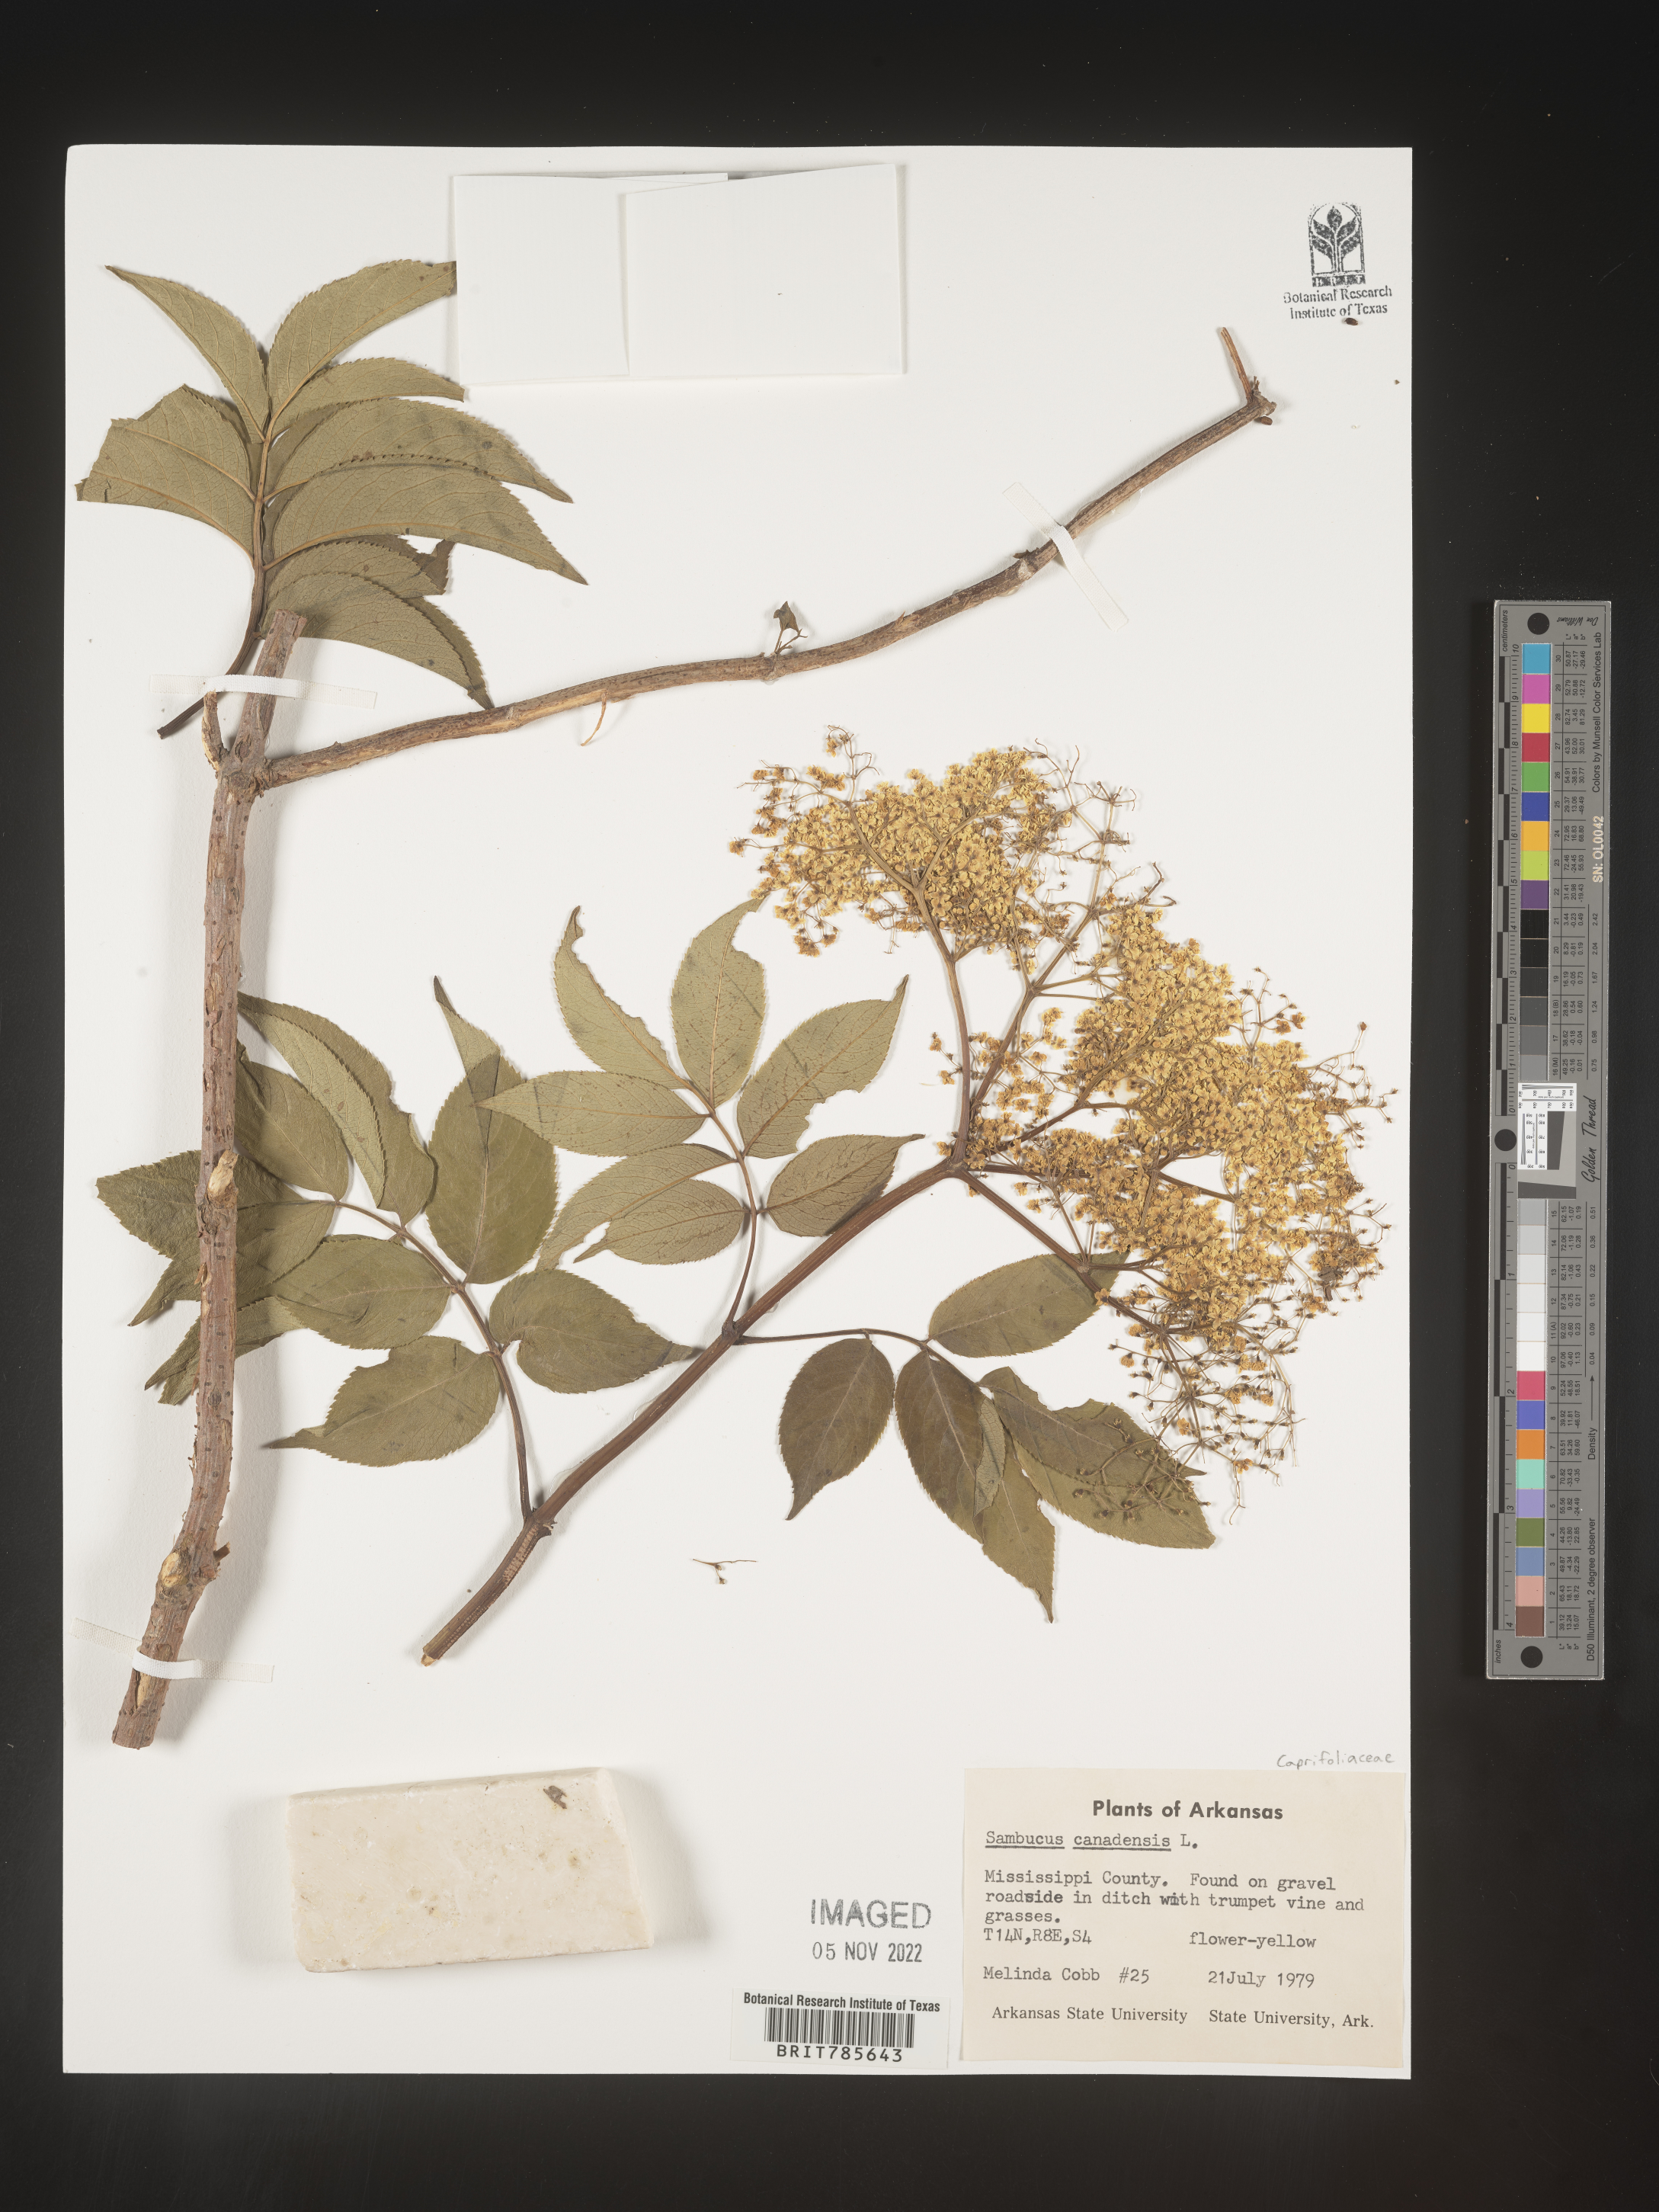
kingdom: Plantae
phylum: Tracheophyta
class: Magnoliopsida
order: Dipsacales
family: Viburnaceae
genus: Sambucus
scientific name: Sambucus canadensis
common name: American elder
